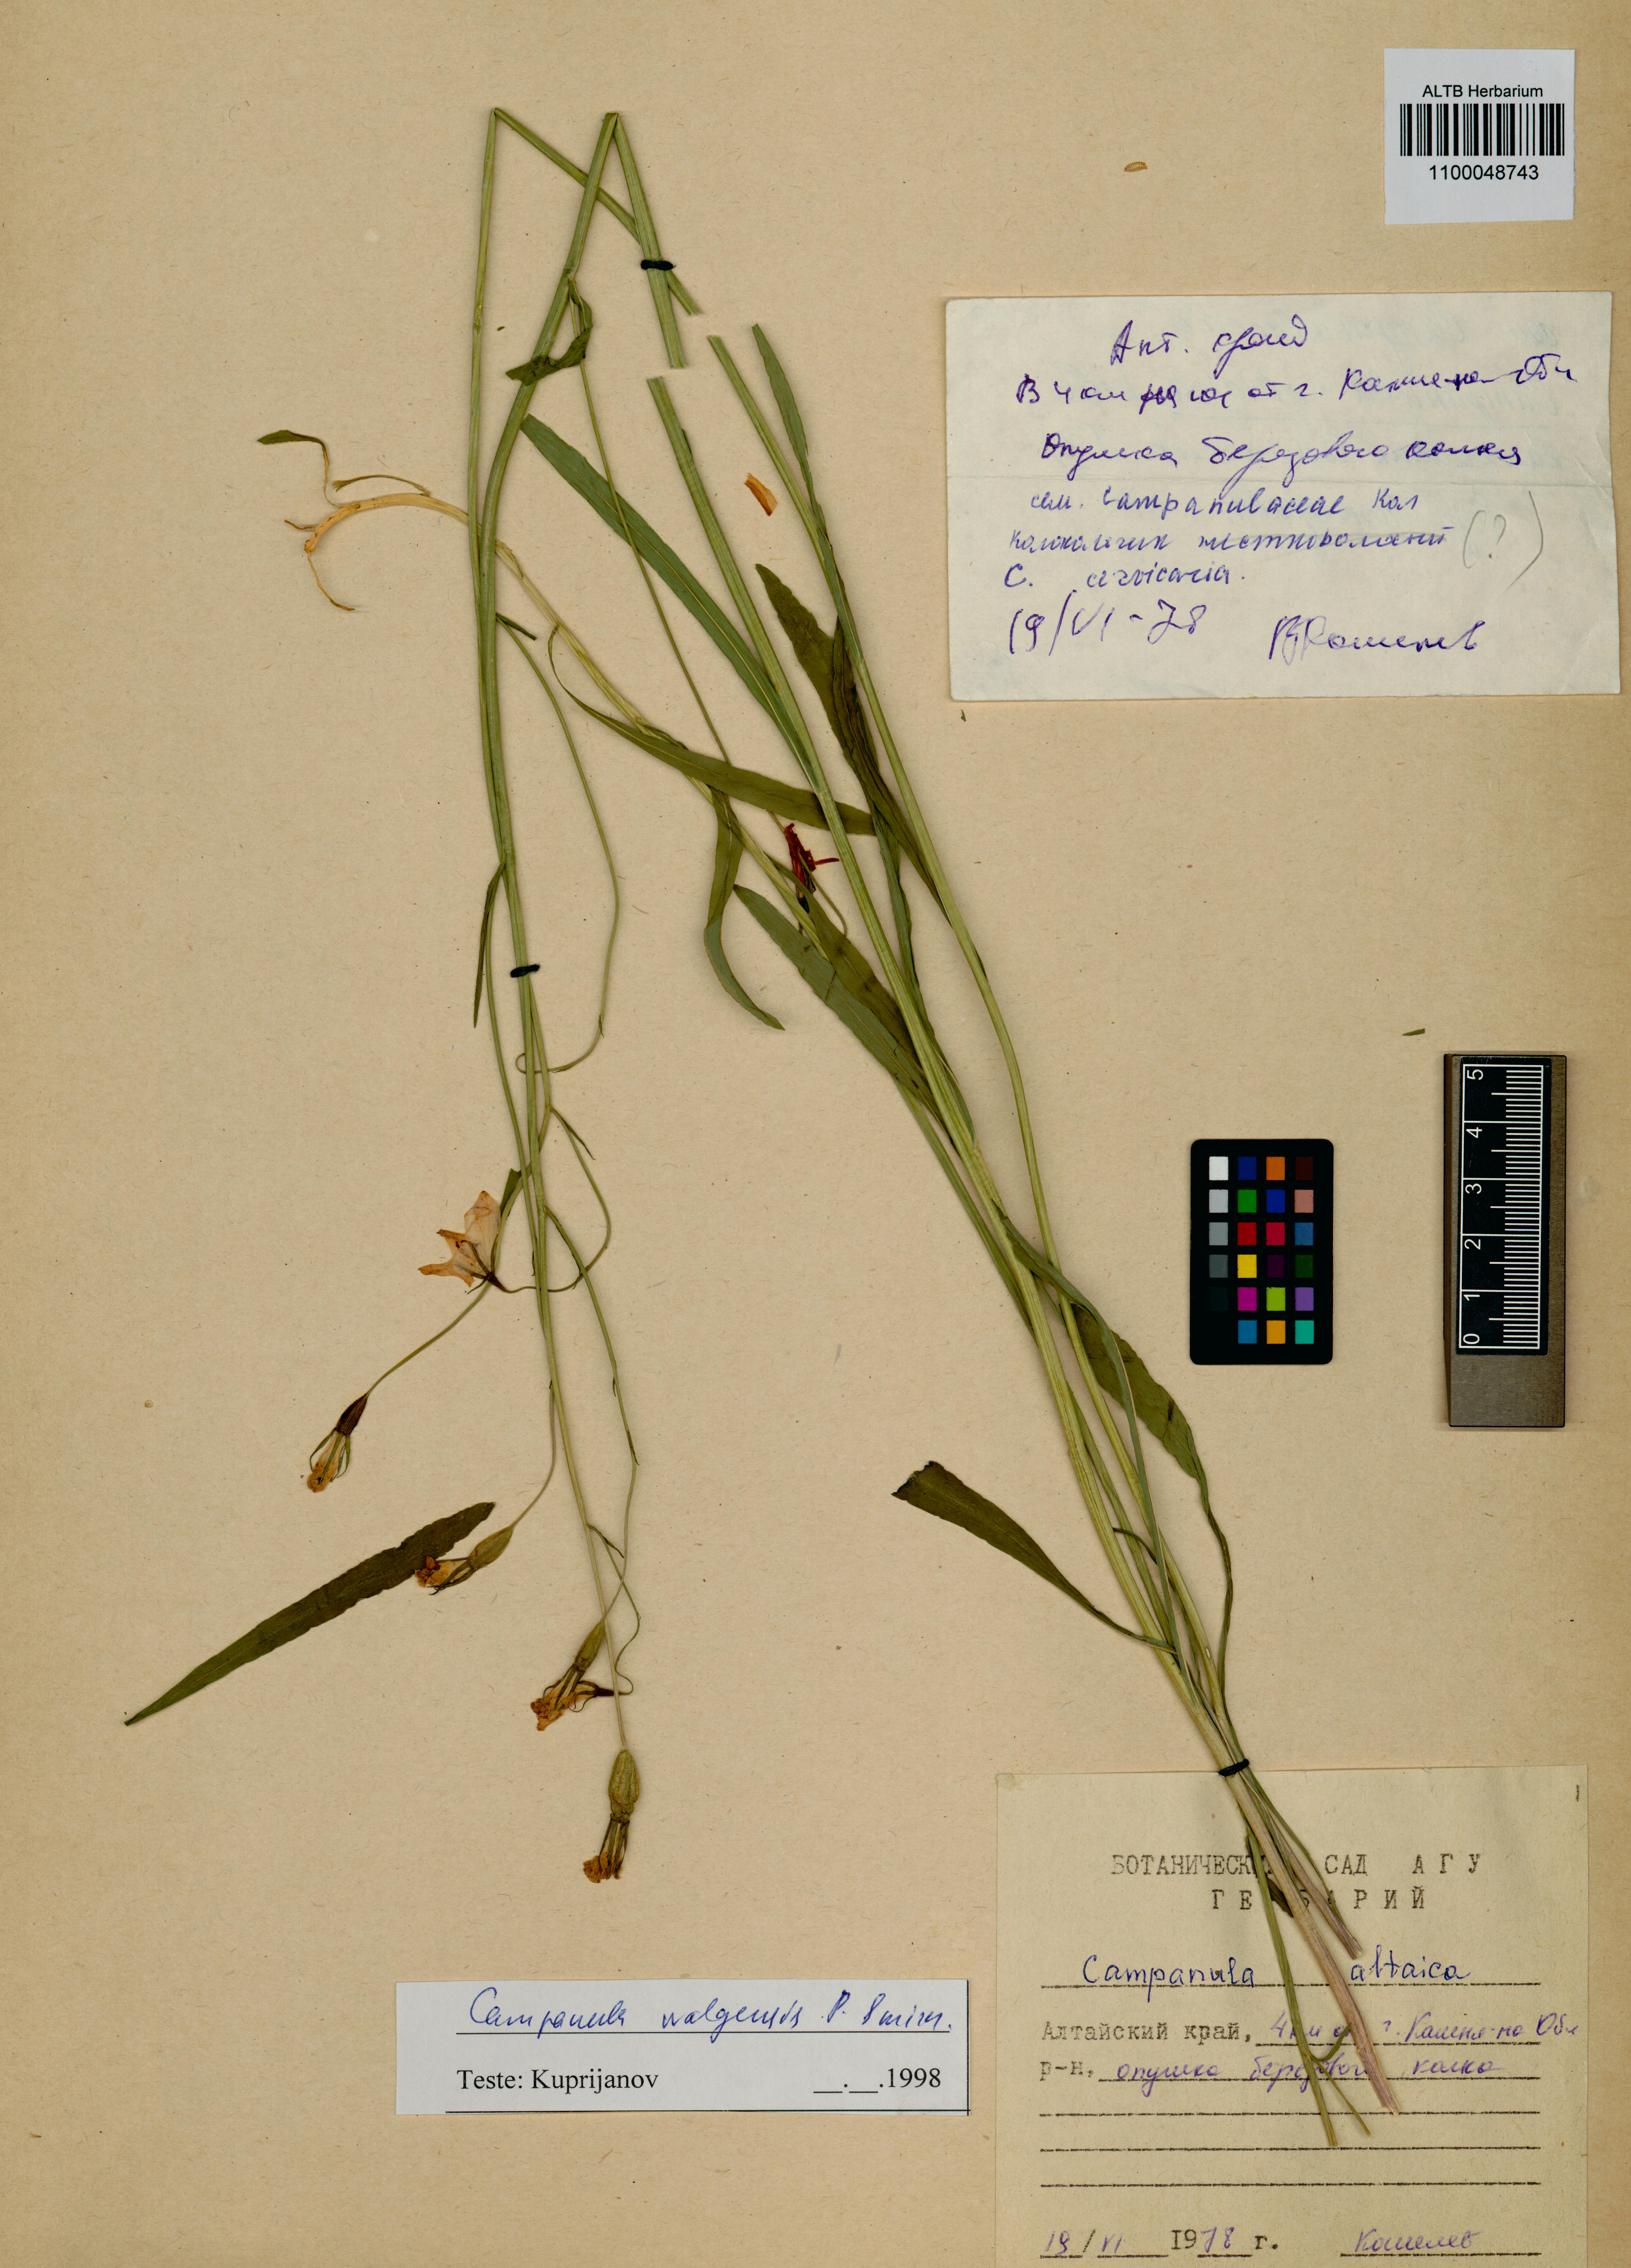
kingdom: Plantae
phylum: Tracheophyta
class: Magnoliopsida
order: Asterales
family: Campanulaceae
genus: Campanula
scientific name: Campanula stevenii
